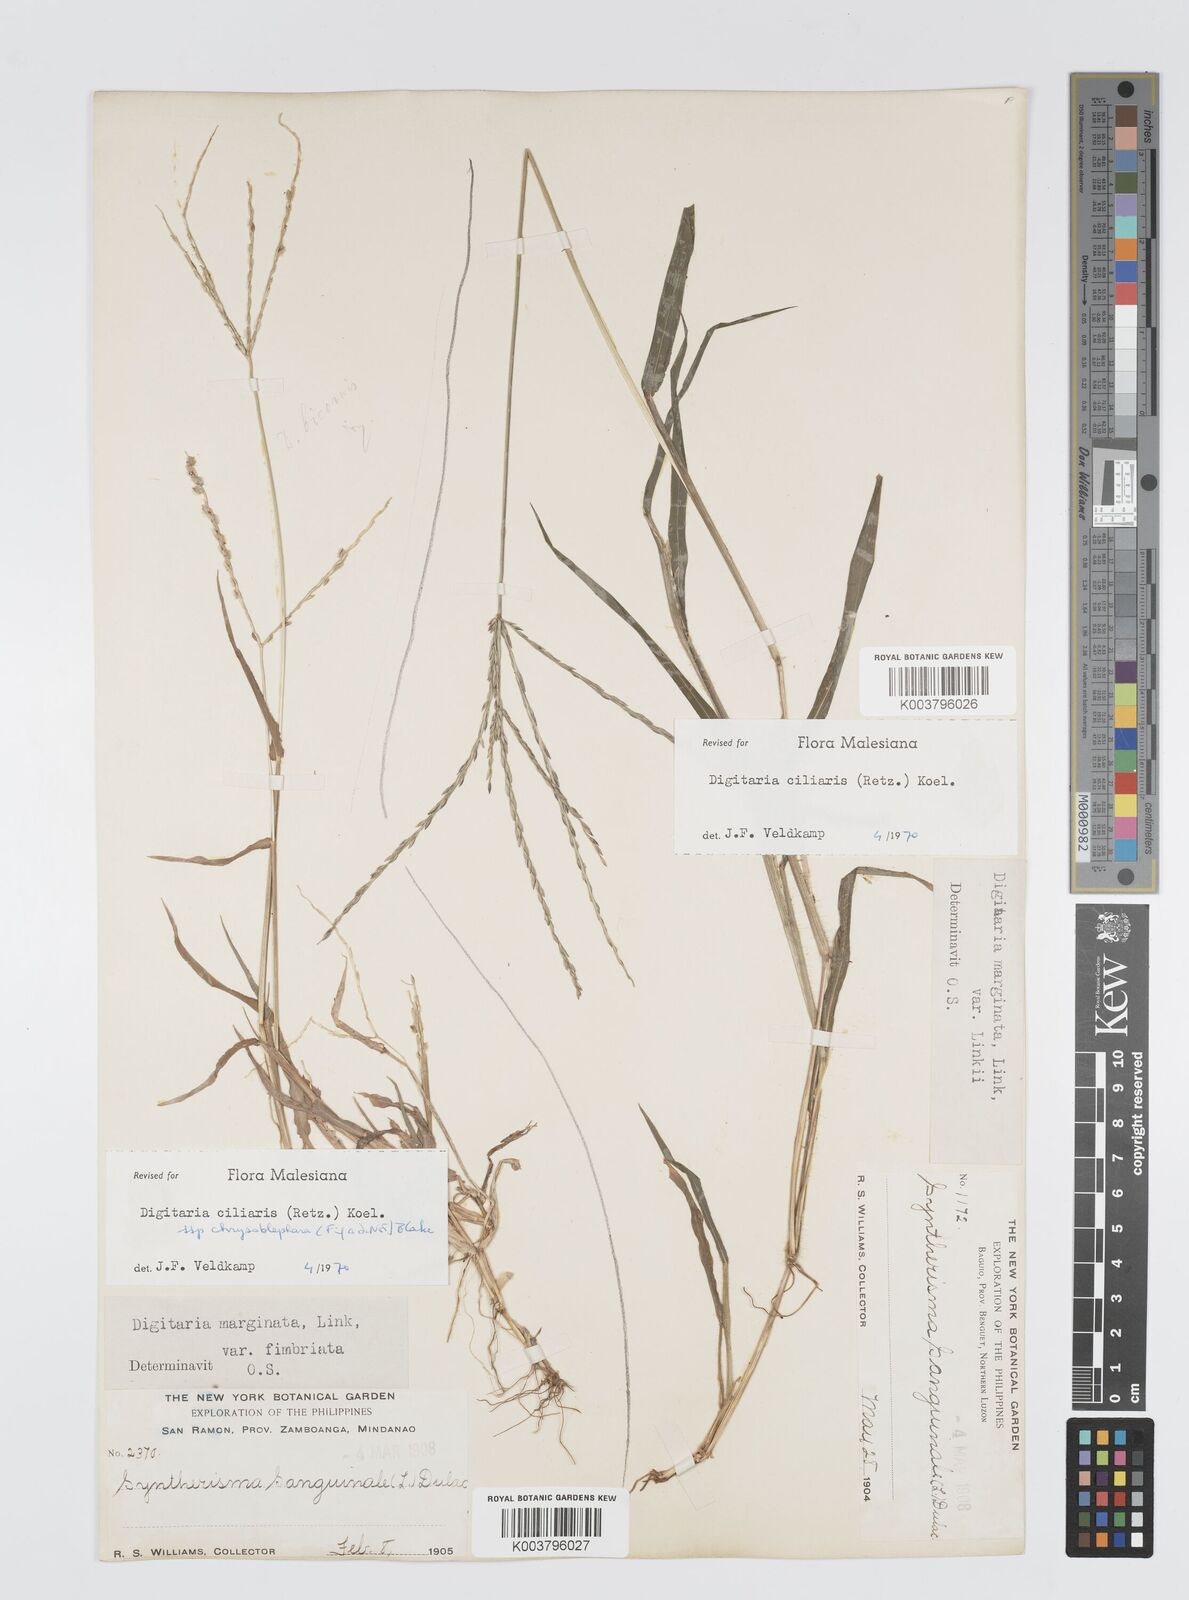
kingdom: Plantae
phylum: Tracheophyta
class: Liliopsida
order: Poales
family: Poaceae
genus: Digitaria
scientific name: Digitaria ciliaris
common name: Tropical finger-grass
